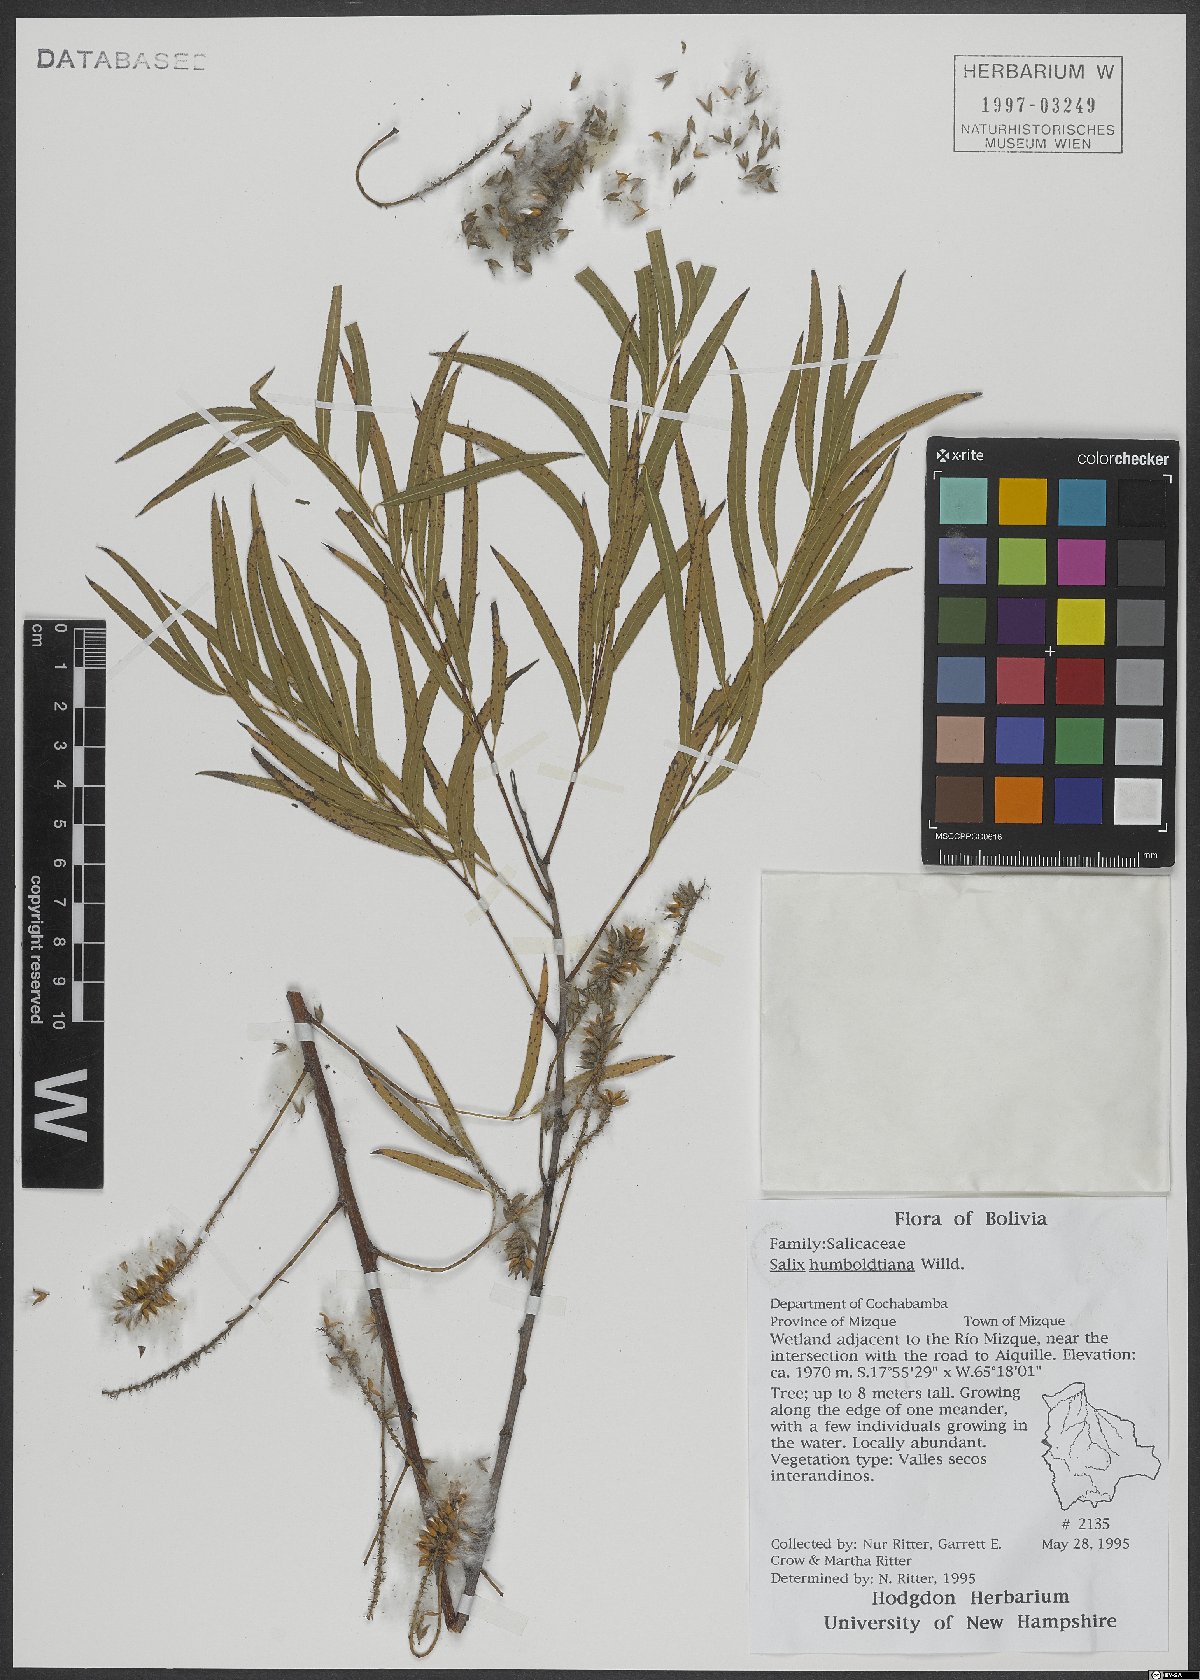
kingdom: Plantae
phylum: Tracheophyta
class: Magnoliopsida
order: Malpighiales
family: Salicaceae
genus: Salix
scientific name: Salix humboldtiana
